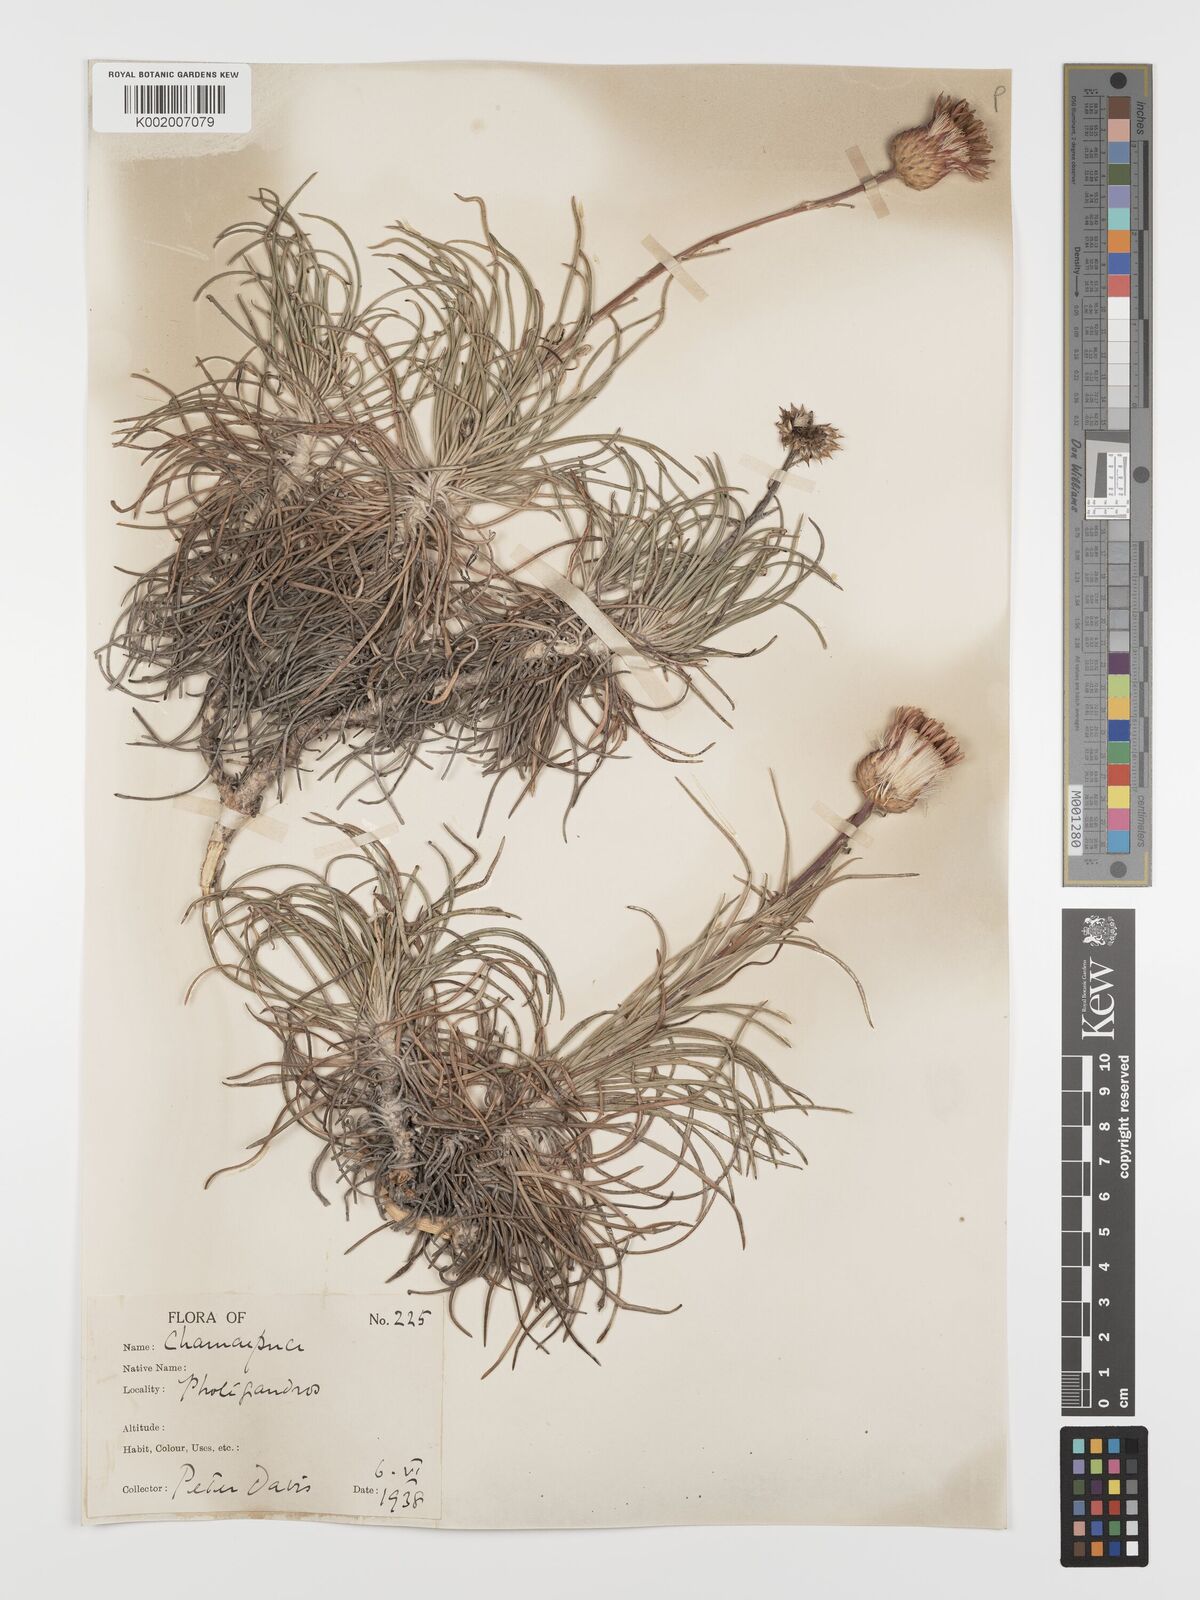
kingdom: Plantae
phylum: Tracheophyta
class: Magnoliopsida
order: Asterales
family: Asteraceae
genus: Ptilostemon
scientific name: Ptilostemon chamaepeuce
